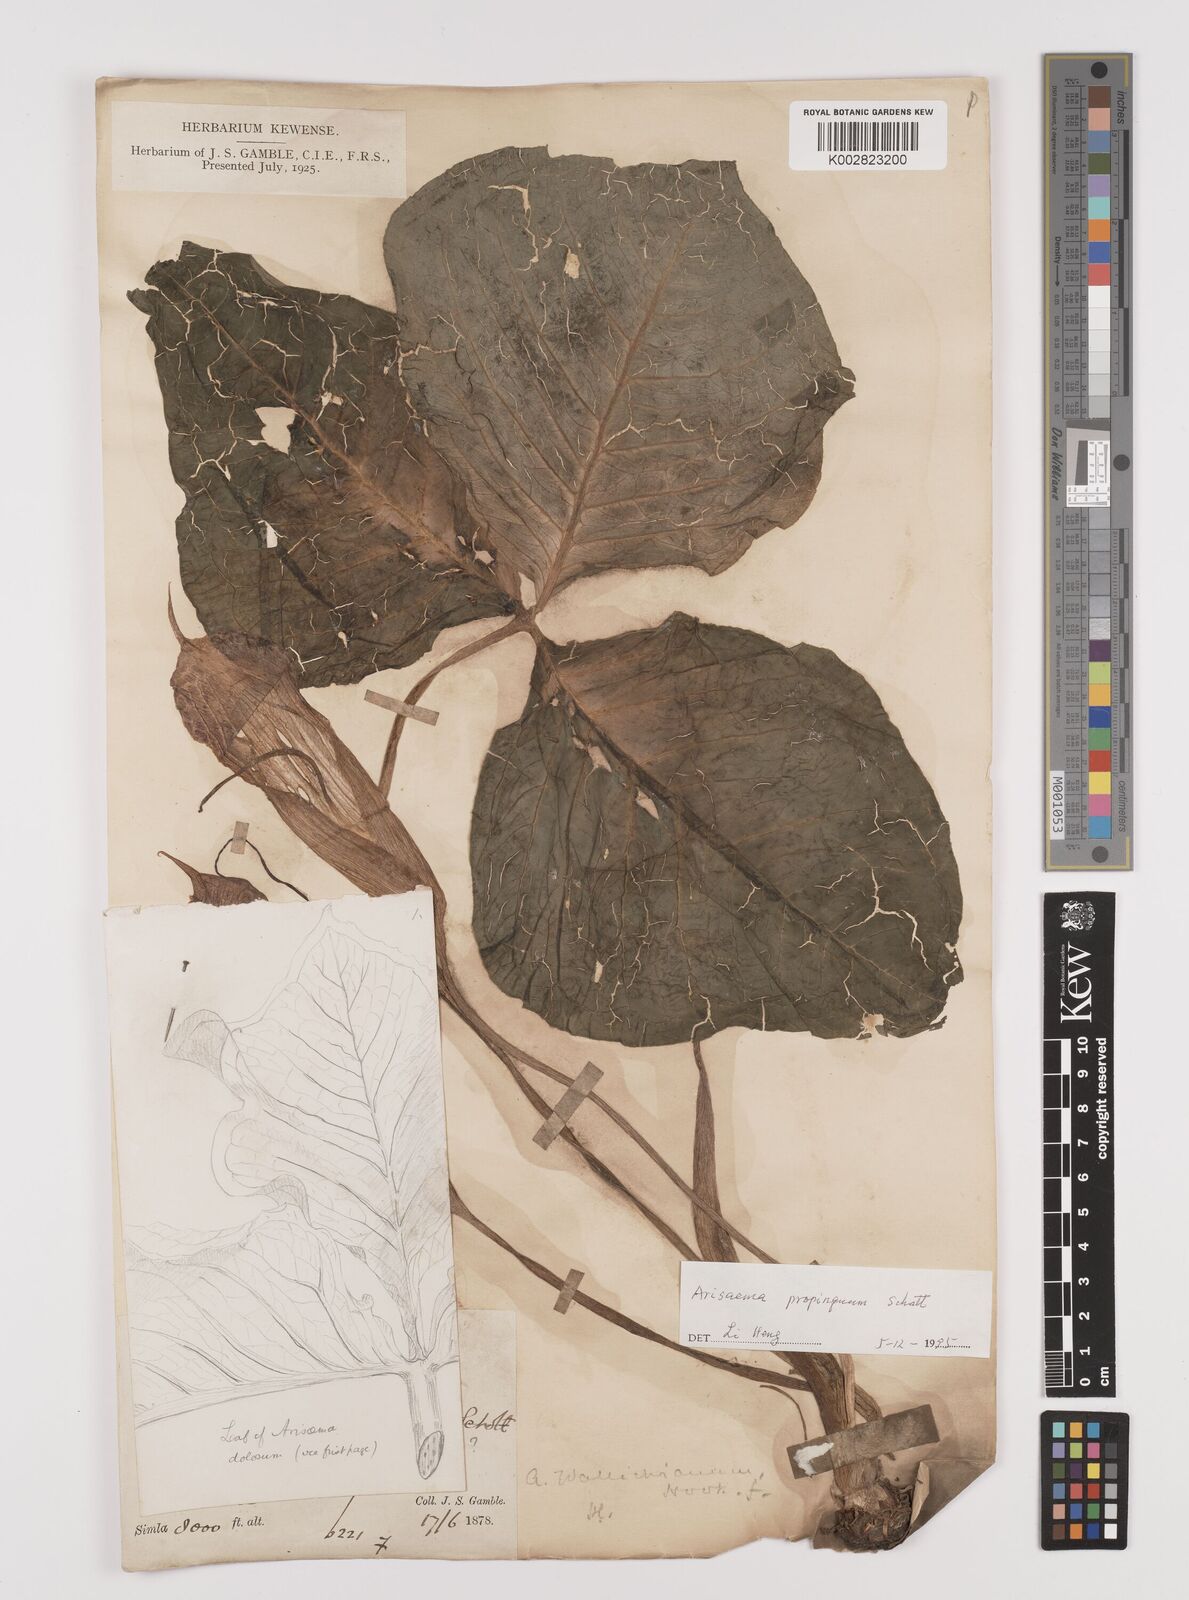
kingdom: Plantae
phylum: Tracheophyta
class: Liliopsida
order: Alismatales
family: Araceae
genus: Arisaema
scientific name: Arisaema propinquum
